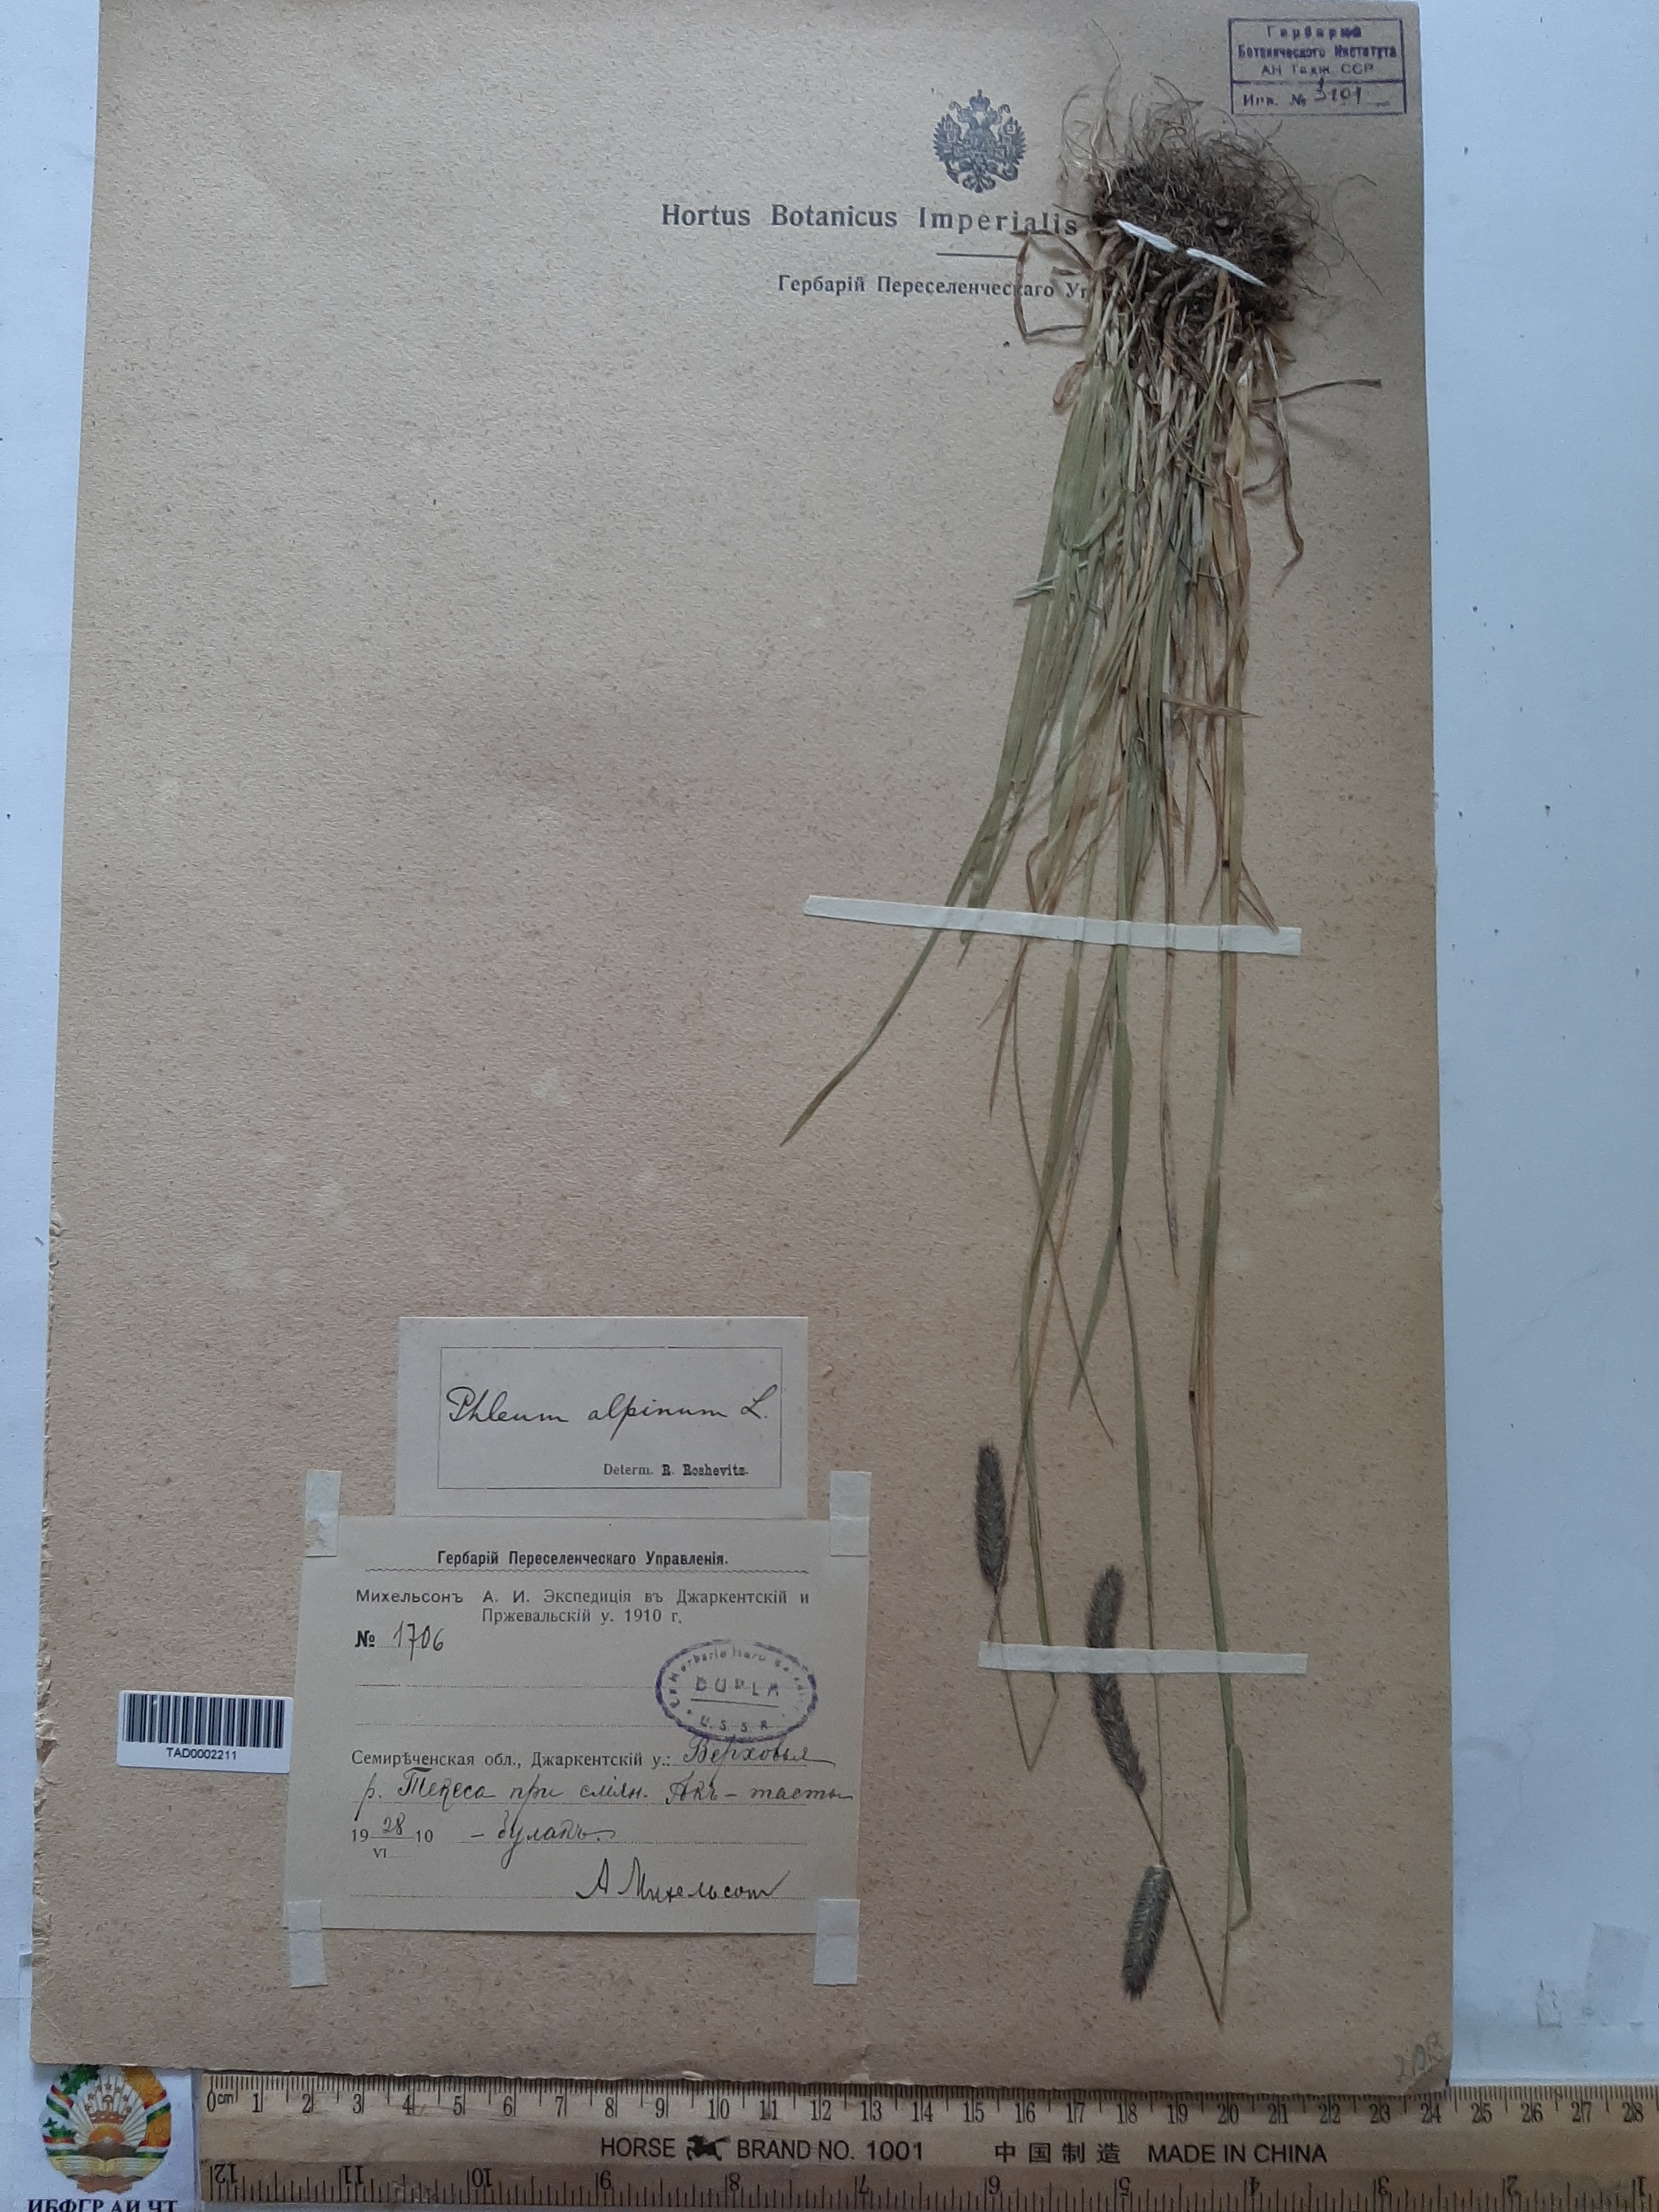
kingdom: Plantae
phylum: Tracheophyta
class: Liliopsida
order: Poales
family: Poaceae
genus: Phleum
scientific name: Phleum alpinum
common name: Alpine cat's-tail
